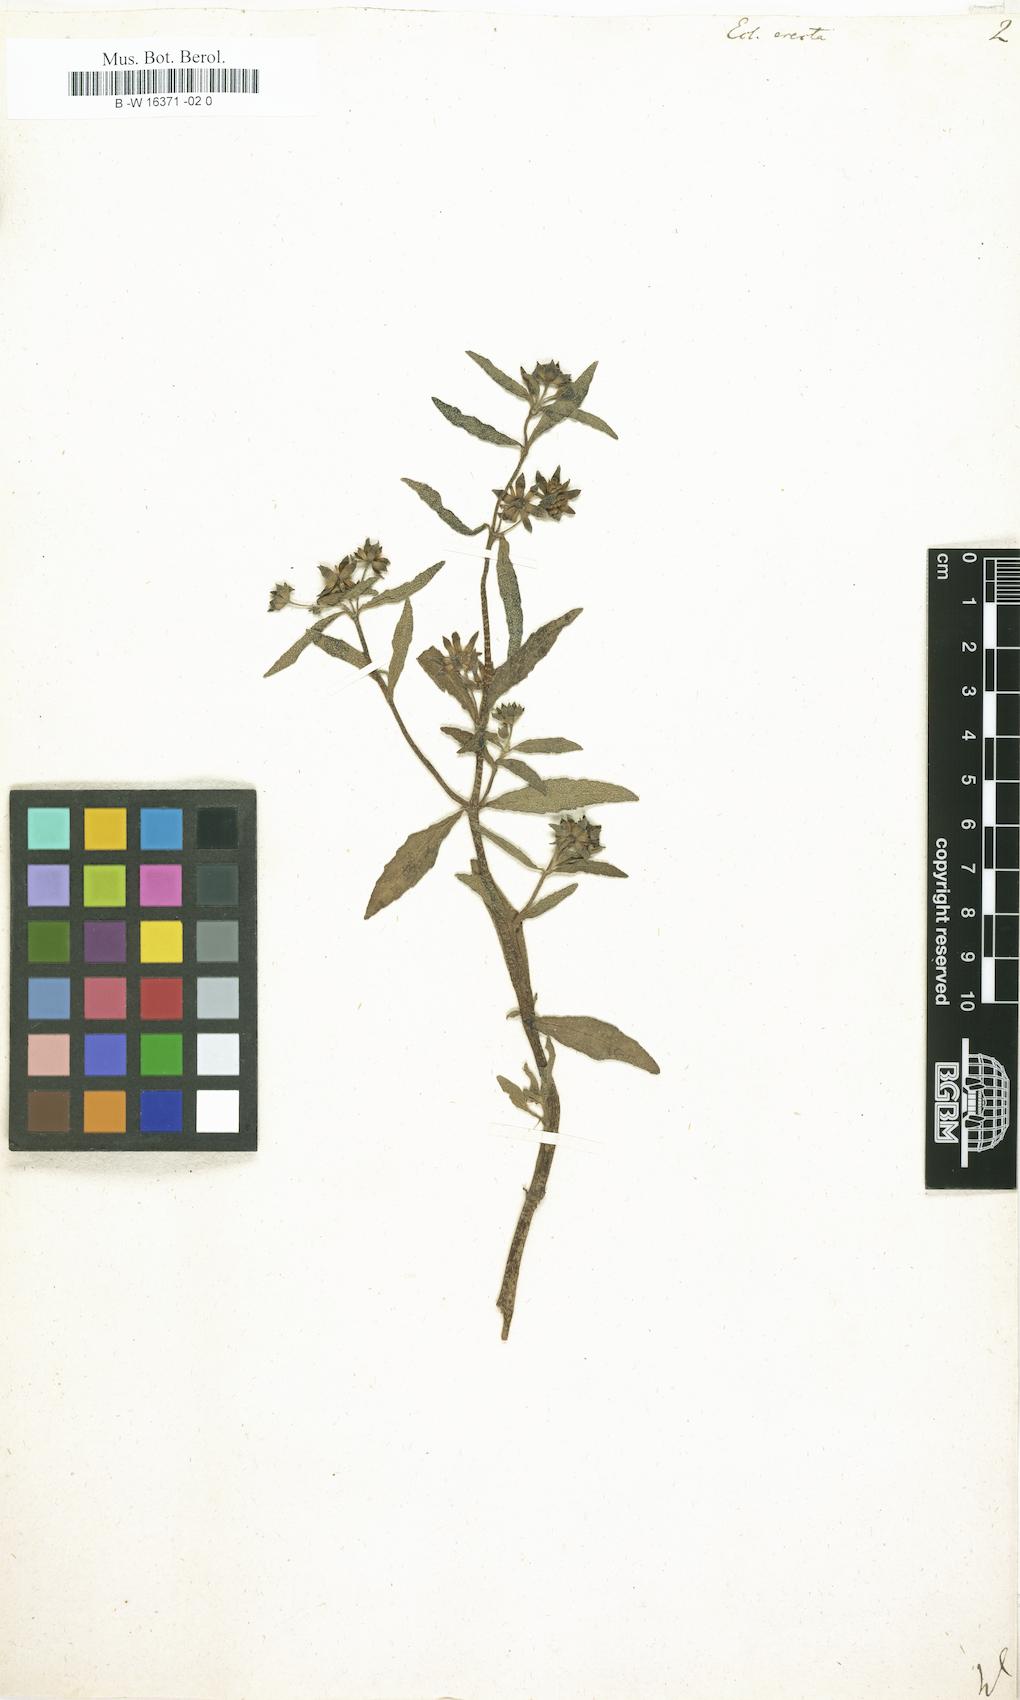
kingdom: Plantae
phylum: Tracheophyta
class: Magnoliopsida
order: Asterales
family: Asteraceae
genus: Eclipta
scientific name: Eclipta alba
